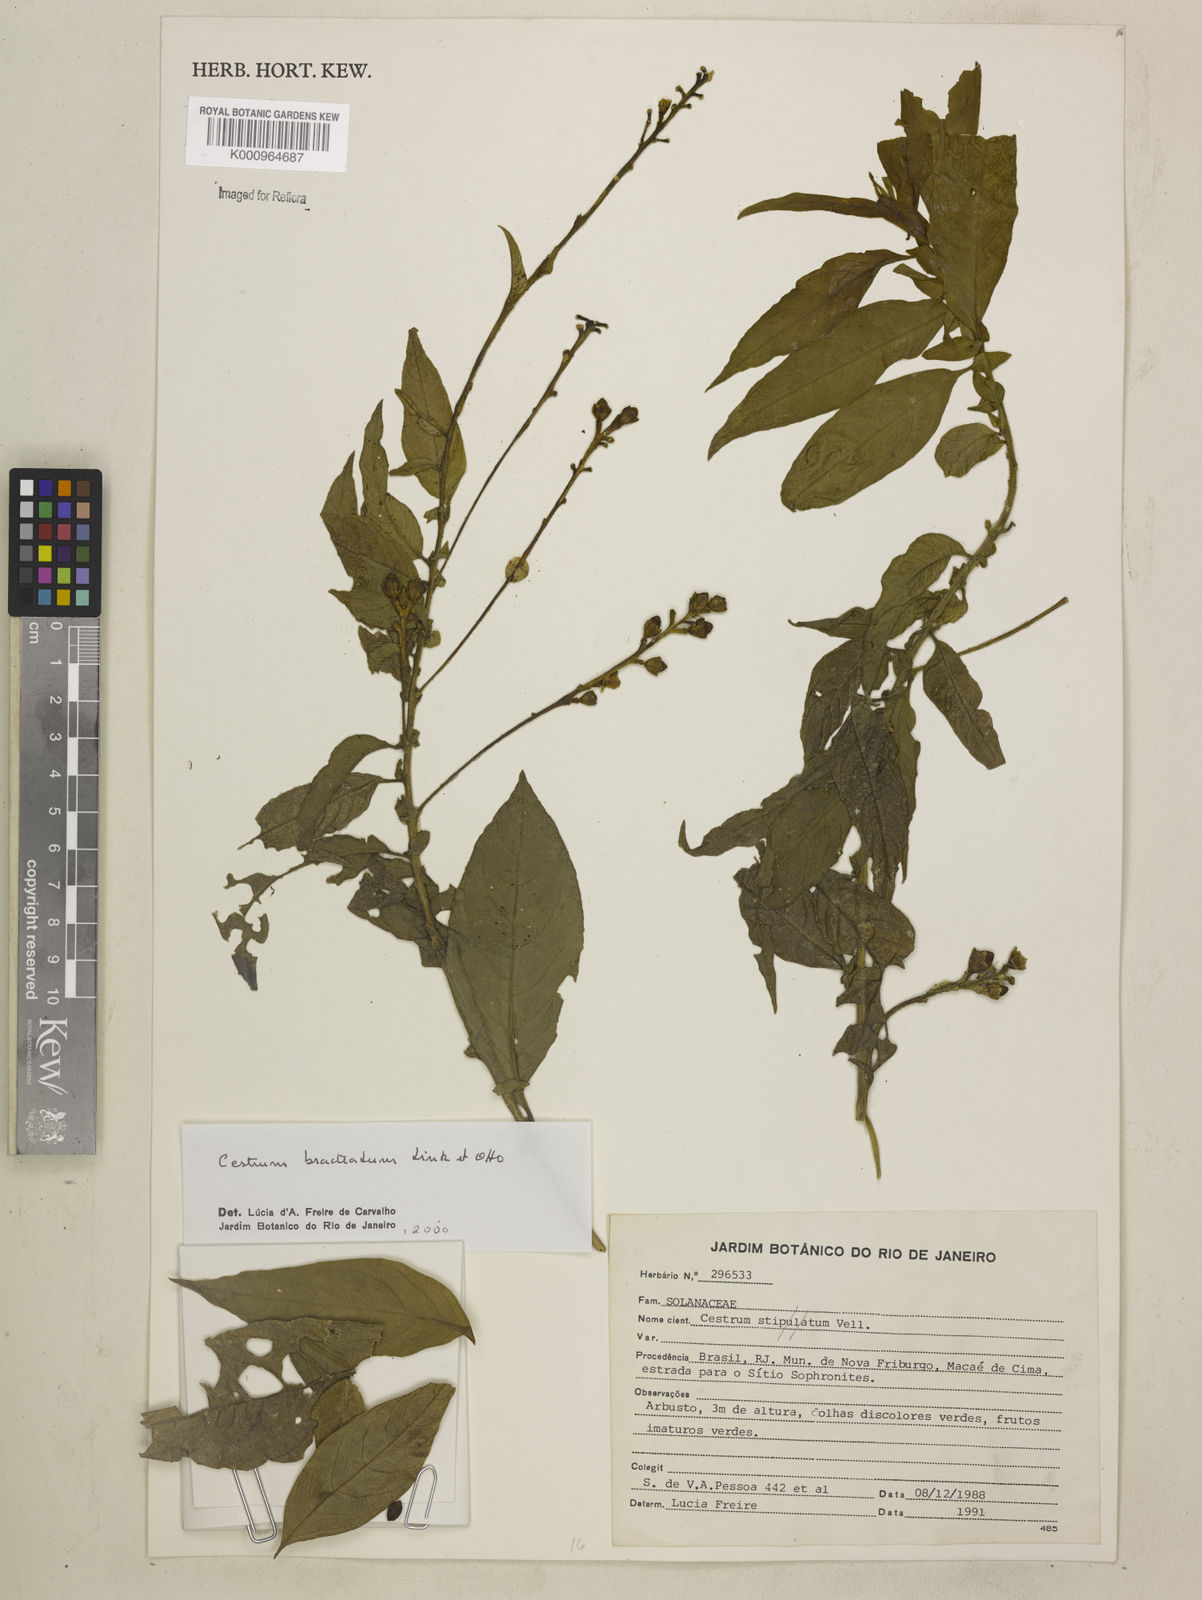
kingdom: Plantae
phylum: Tracheophyta
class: Magnoliopsida
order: Solanales
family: Solanaceae
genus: Cestrum
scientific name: Cestrum bracteatum
